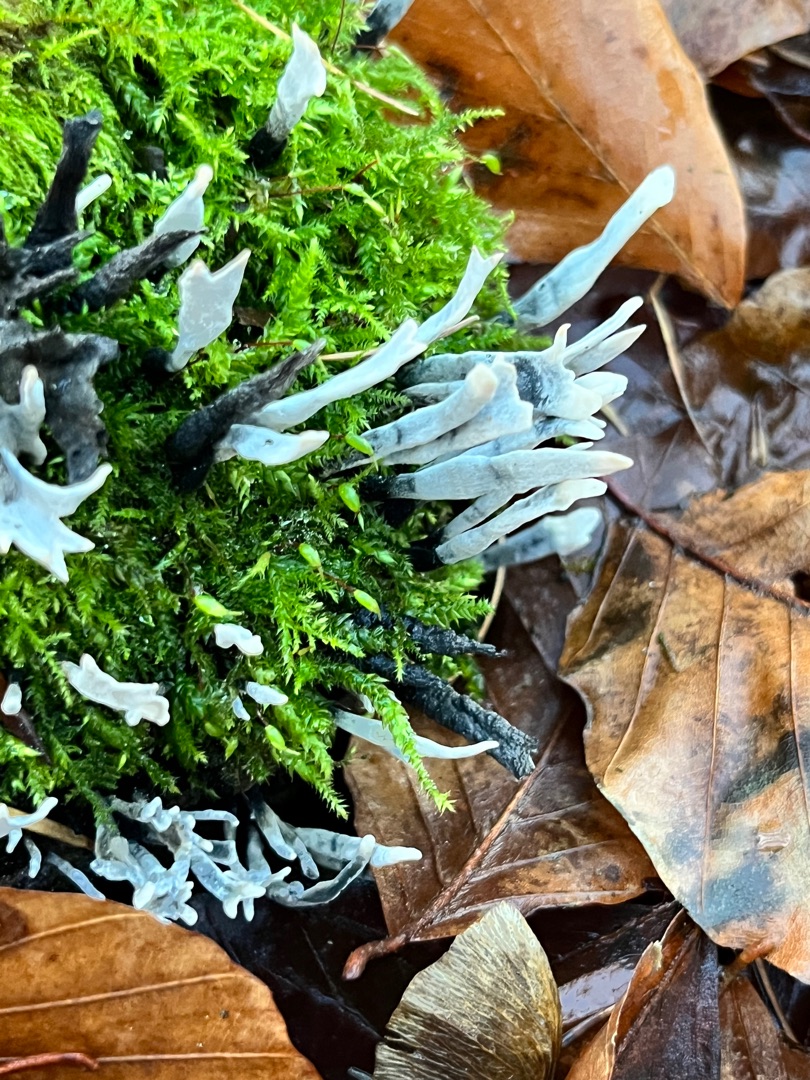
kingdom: Fungi
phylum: Ascomycota
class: Sordariomycetes
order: Xylariales
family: Xylariaceae
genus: Xylaria
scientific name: Xylaria hypoxylon
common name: Grenet stødsvamp
